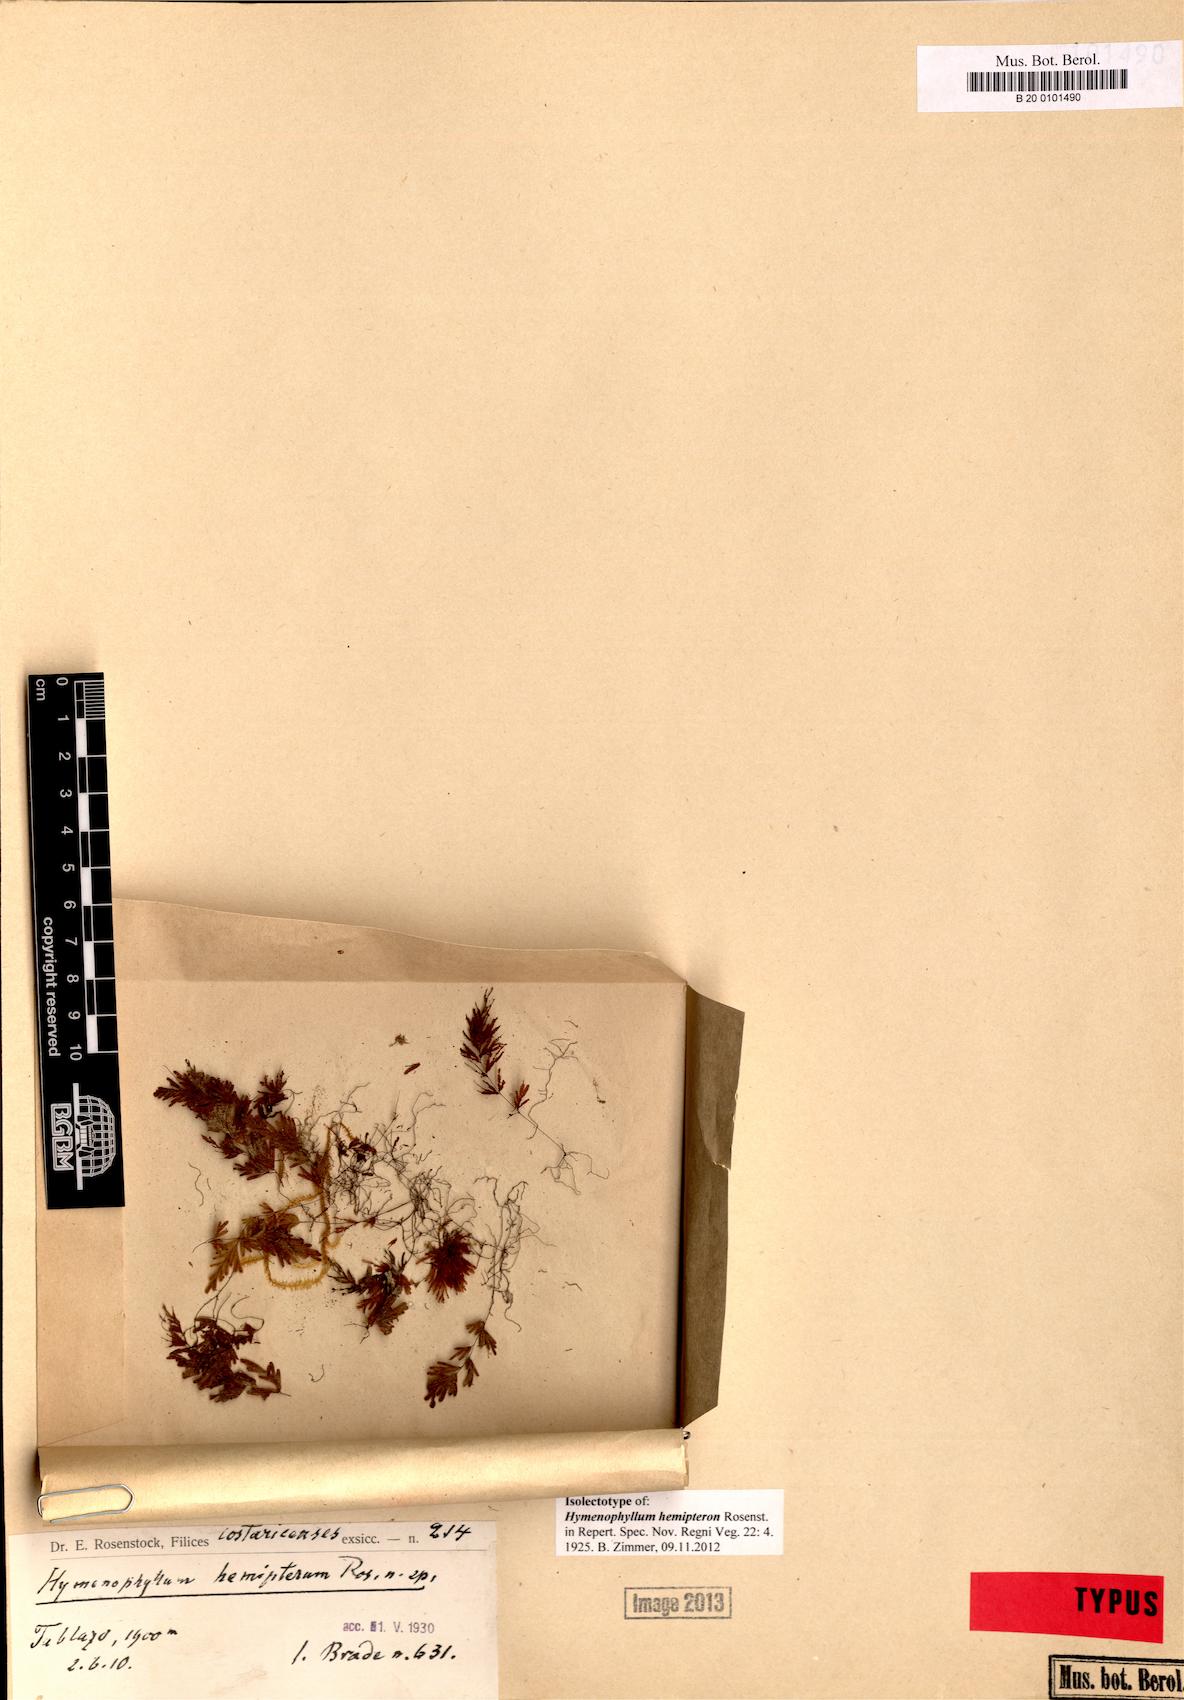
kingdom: Plantae
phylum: Tracheophyta
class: Polypodiopsida
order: Hymenophyllales
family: Hymenophyllaceae
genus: Hymenophyllum
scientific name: Hymenophyllum hemipteron
